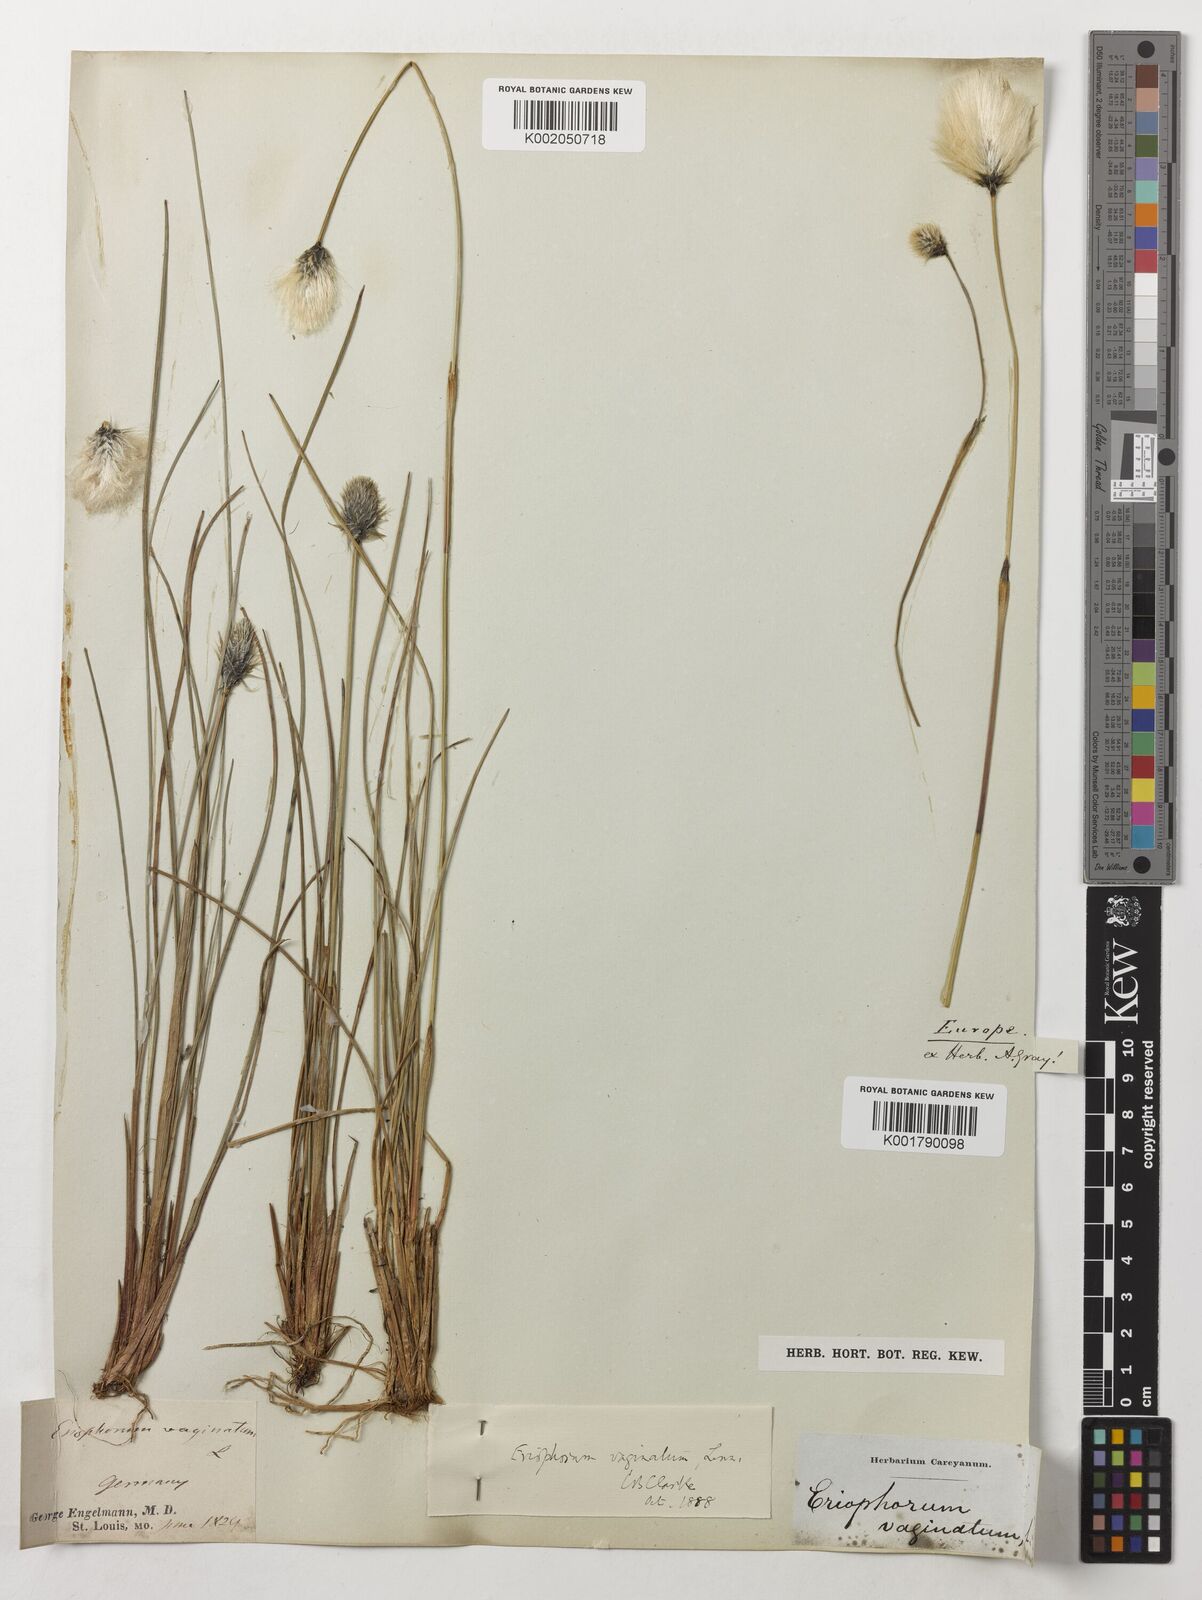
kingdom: Plantae
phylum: Tracheophyta
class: Liliopsida
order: Poales
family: Cyperaceae
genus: Eriophorum
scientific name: Eriophorum vaginatum
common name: Hare's-tail cottongrass
